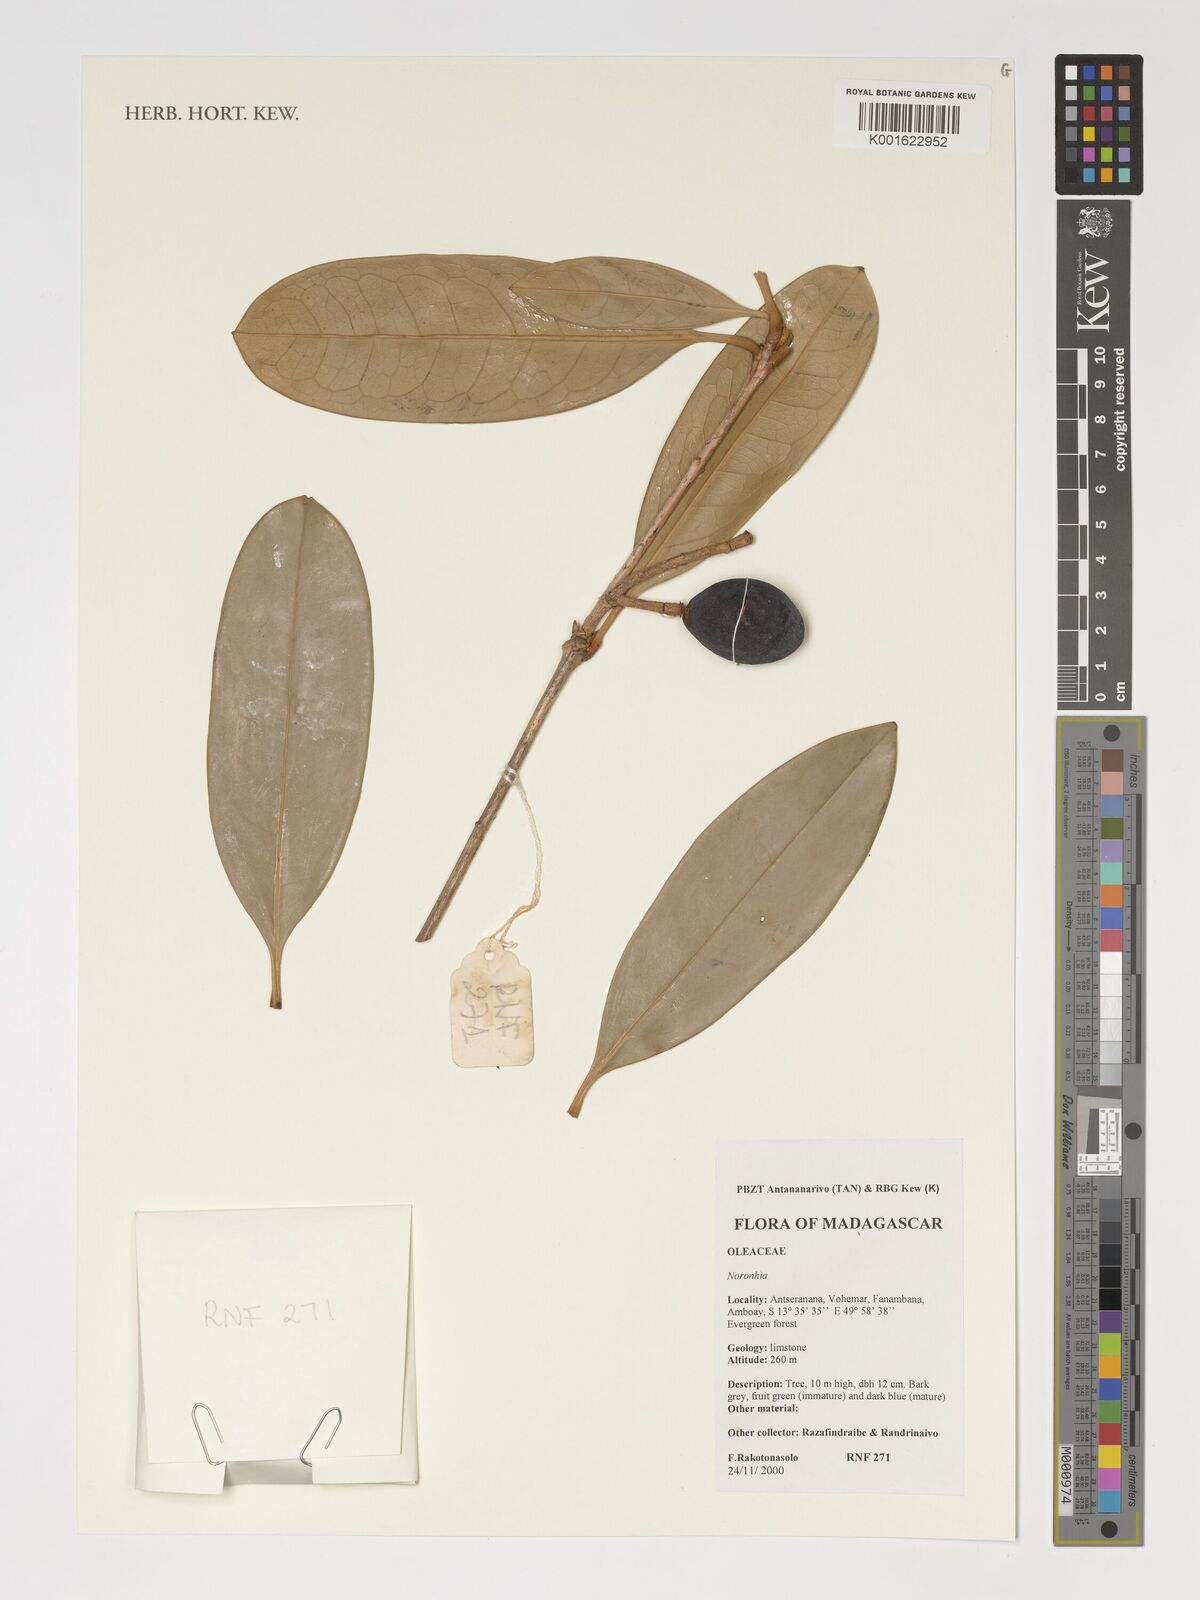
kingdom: Plantae
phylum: Tracheophyta
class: Magnoliopsida
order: Lamiales
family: Oleaceae
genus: Noronhia
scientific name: Noronhia
